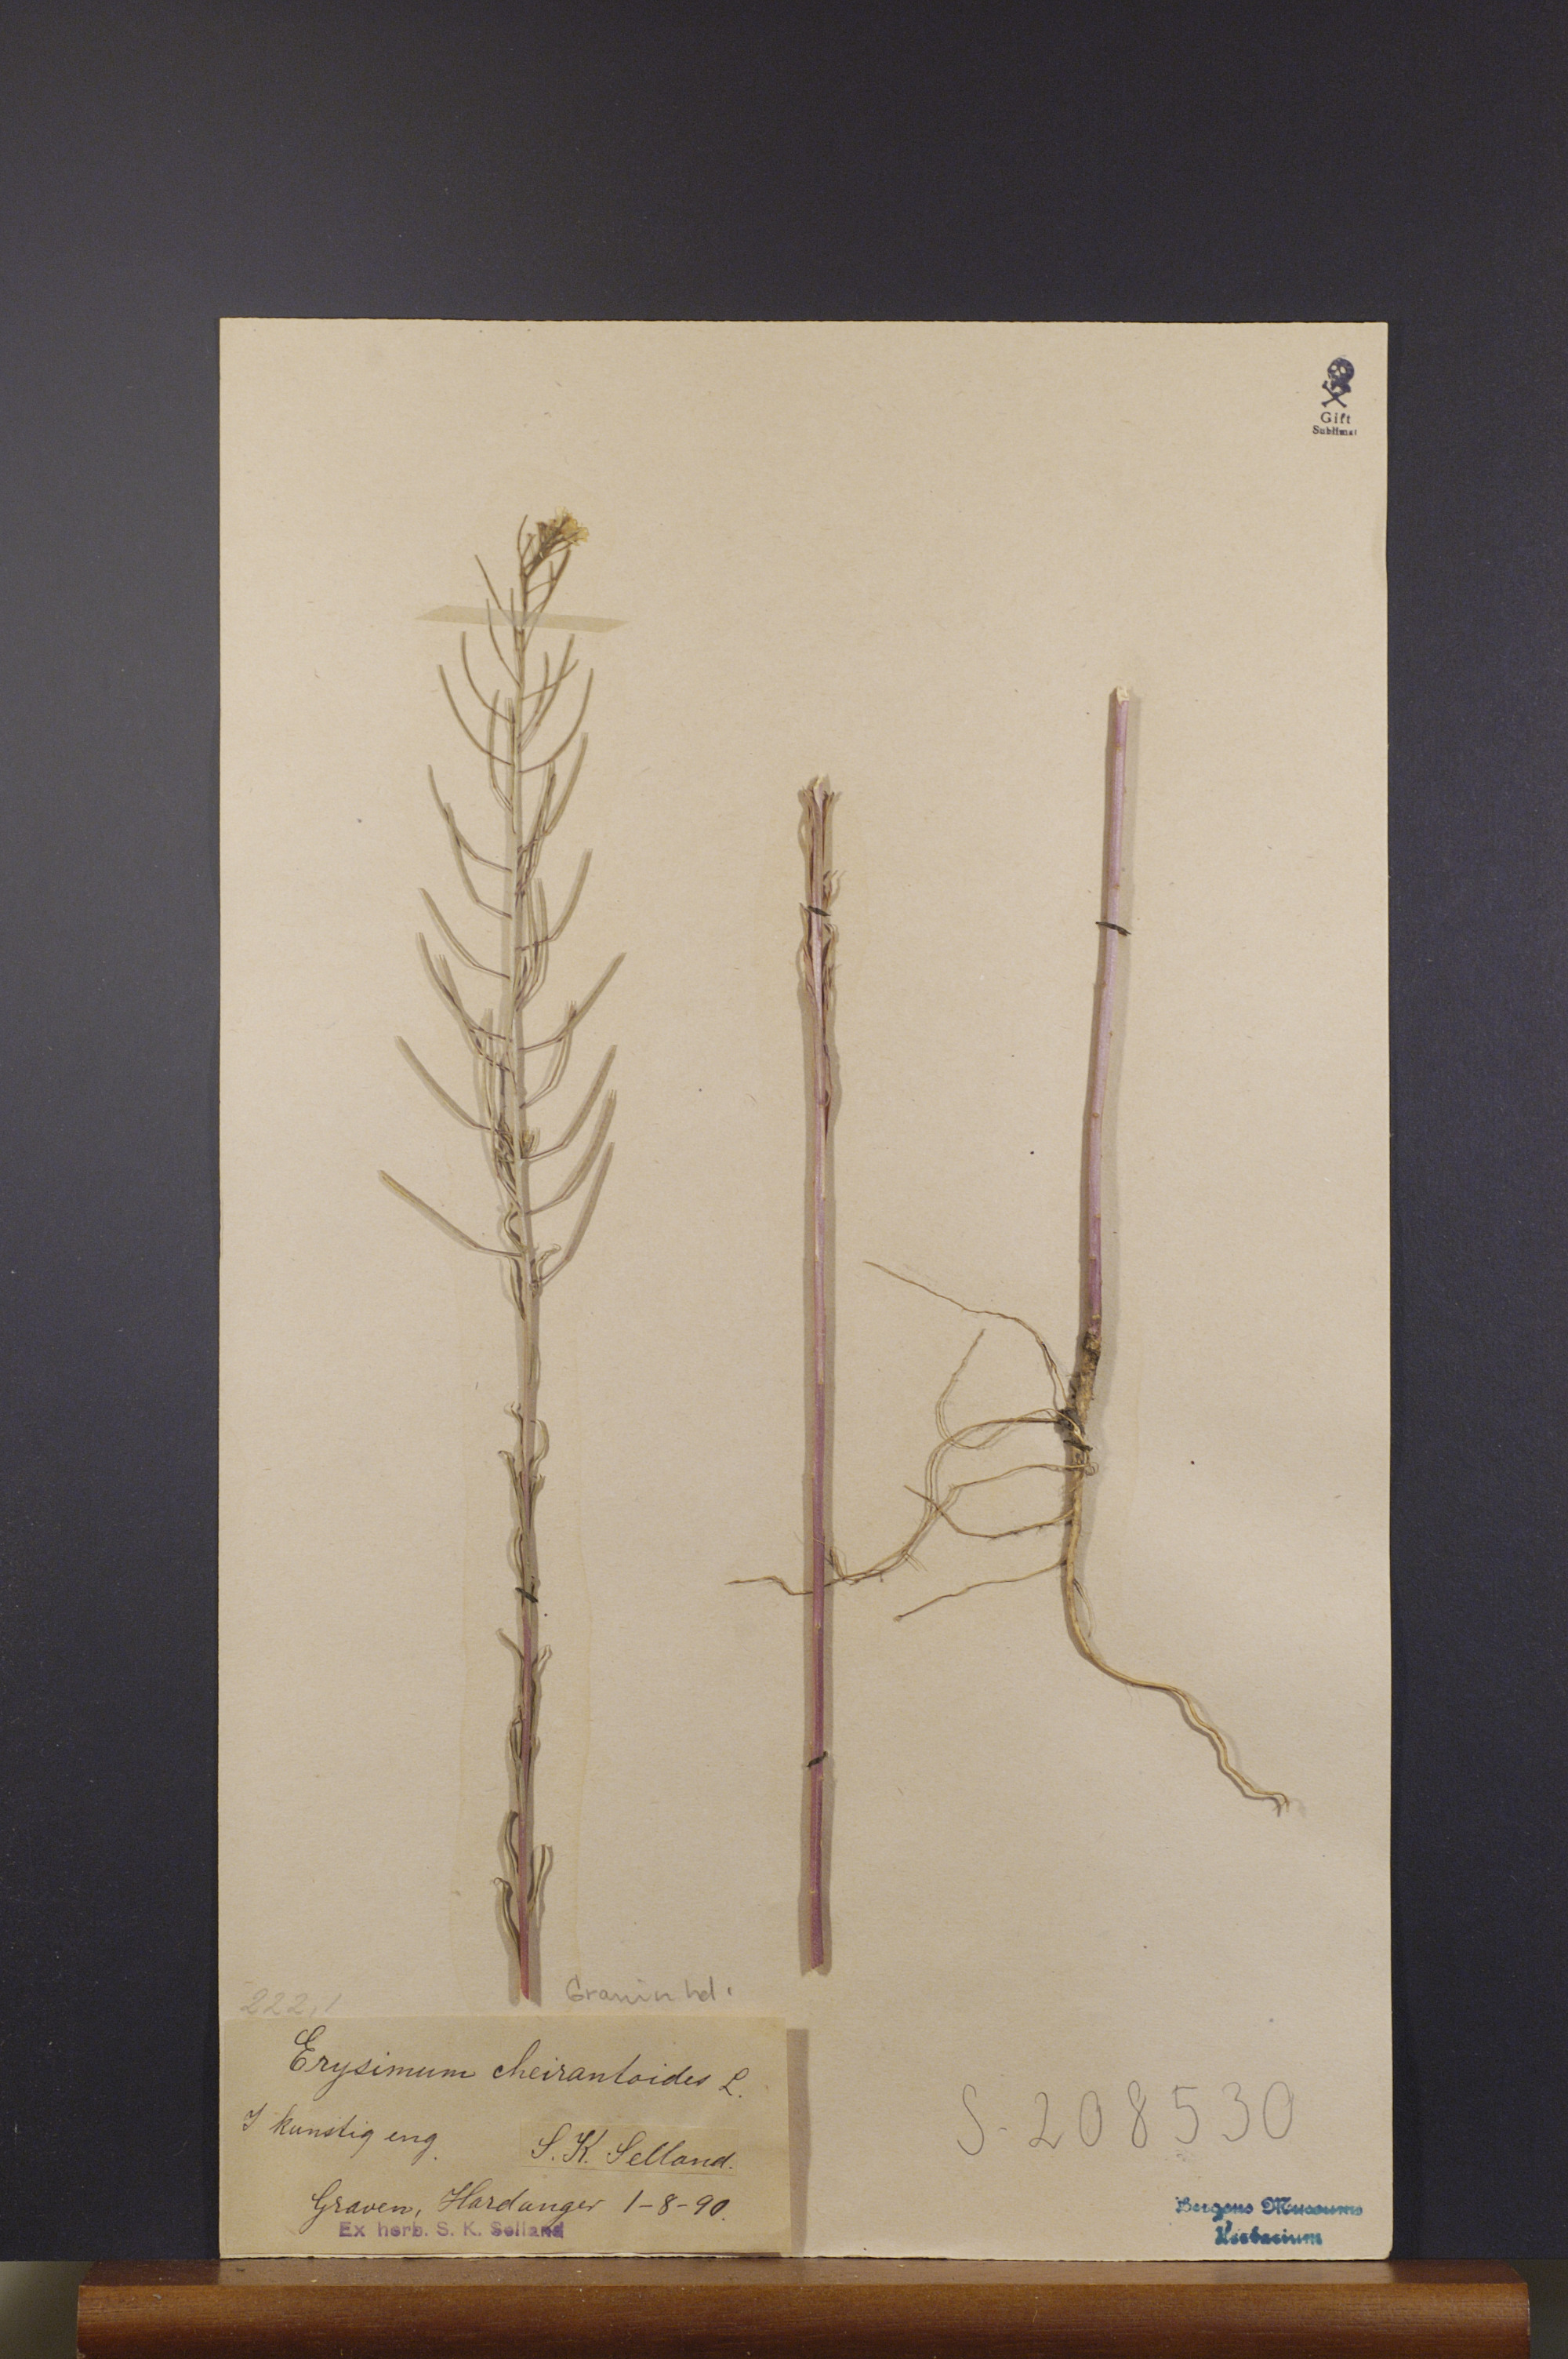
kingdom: Plantae
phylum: Tracheophyta
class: Magnoliopsida
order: Brassicales
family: Brassicaceae
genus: Erysimum
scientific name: Erysimum cheiranthoides
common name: Treacle mustard
